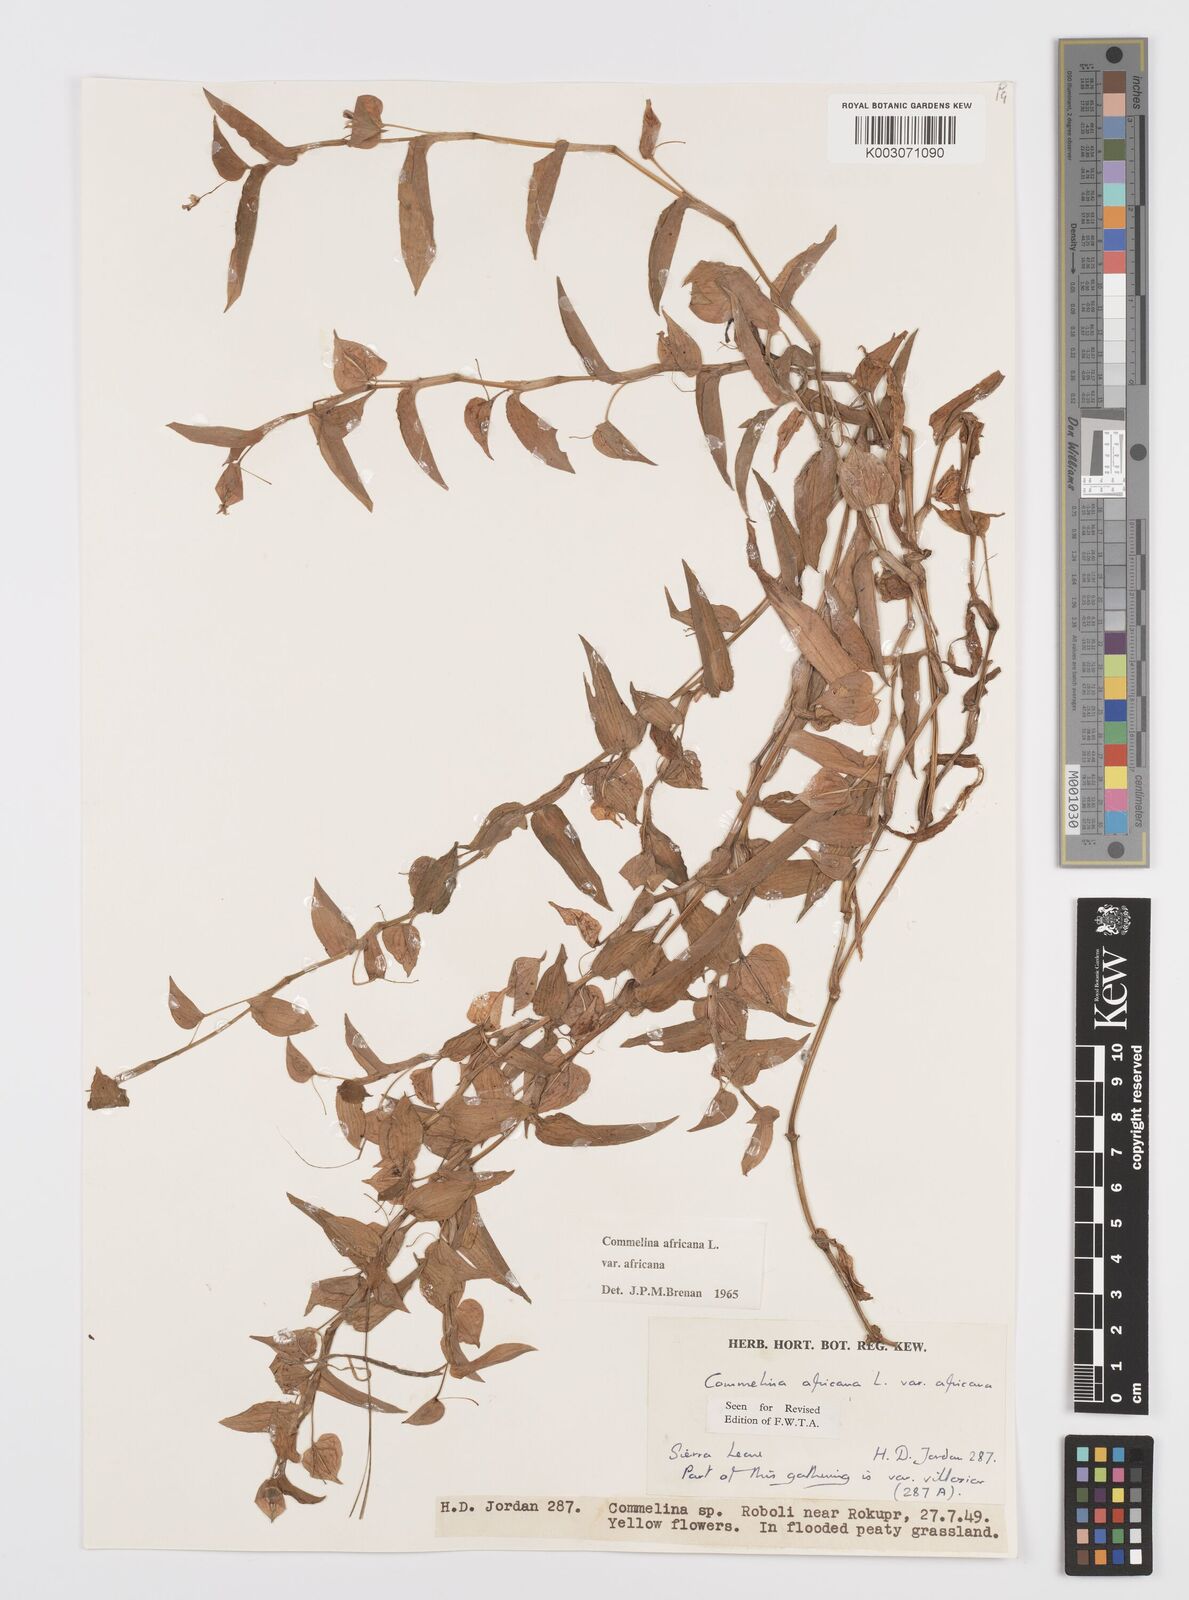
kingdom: Plantae
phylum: Tracheophyta
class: Liliopsida
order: Commelinales
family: Commelinaceae
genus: Commelina
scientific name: Commelina africana
